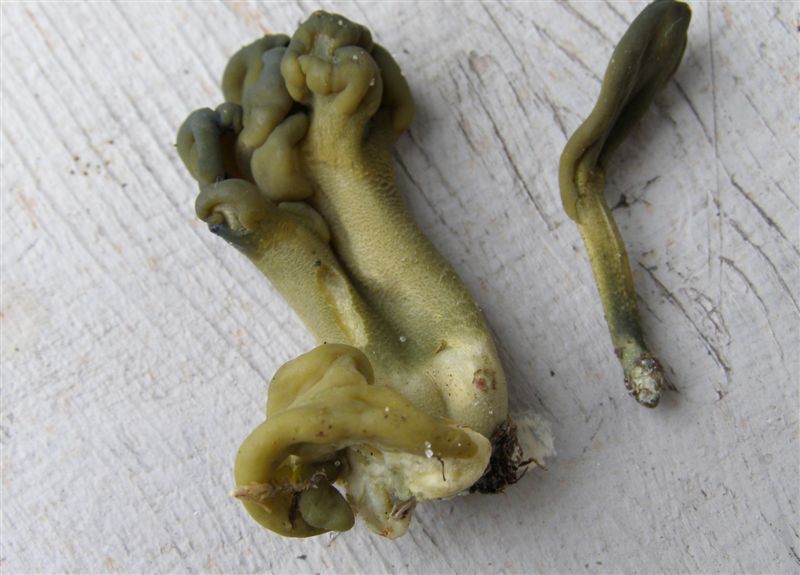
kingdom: Fungi
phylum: Ascomycota
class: Leotiomycetes
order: Leotiales
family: Leotiaceae
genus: Microglossum
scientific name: Microglossum viride
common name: grøn farvetunge
